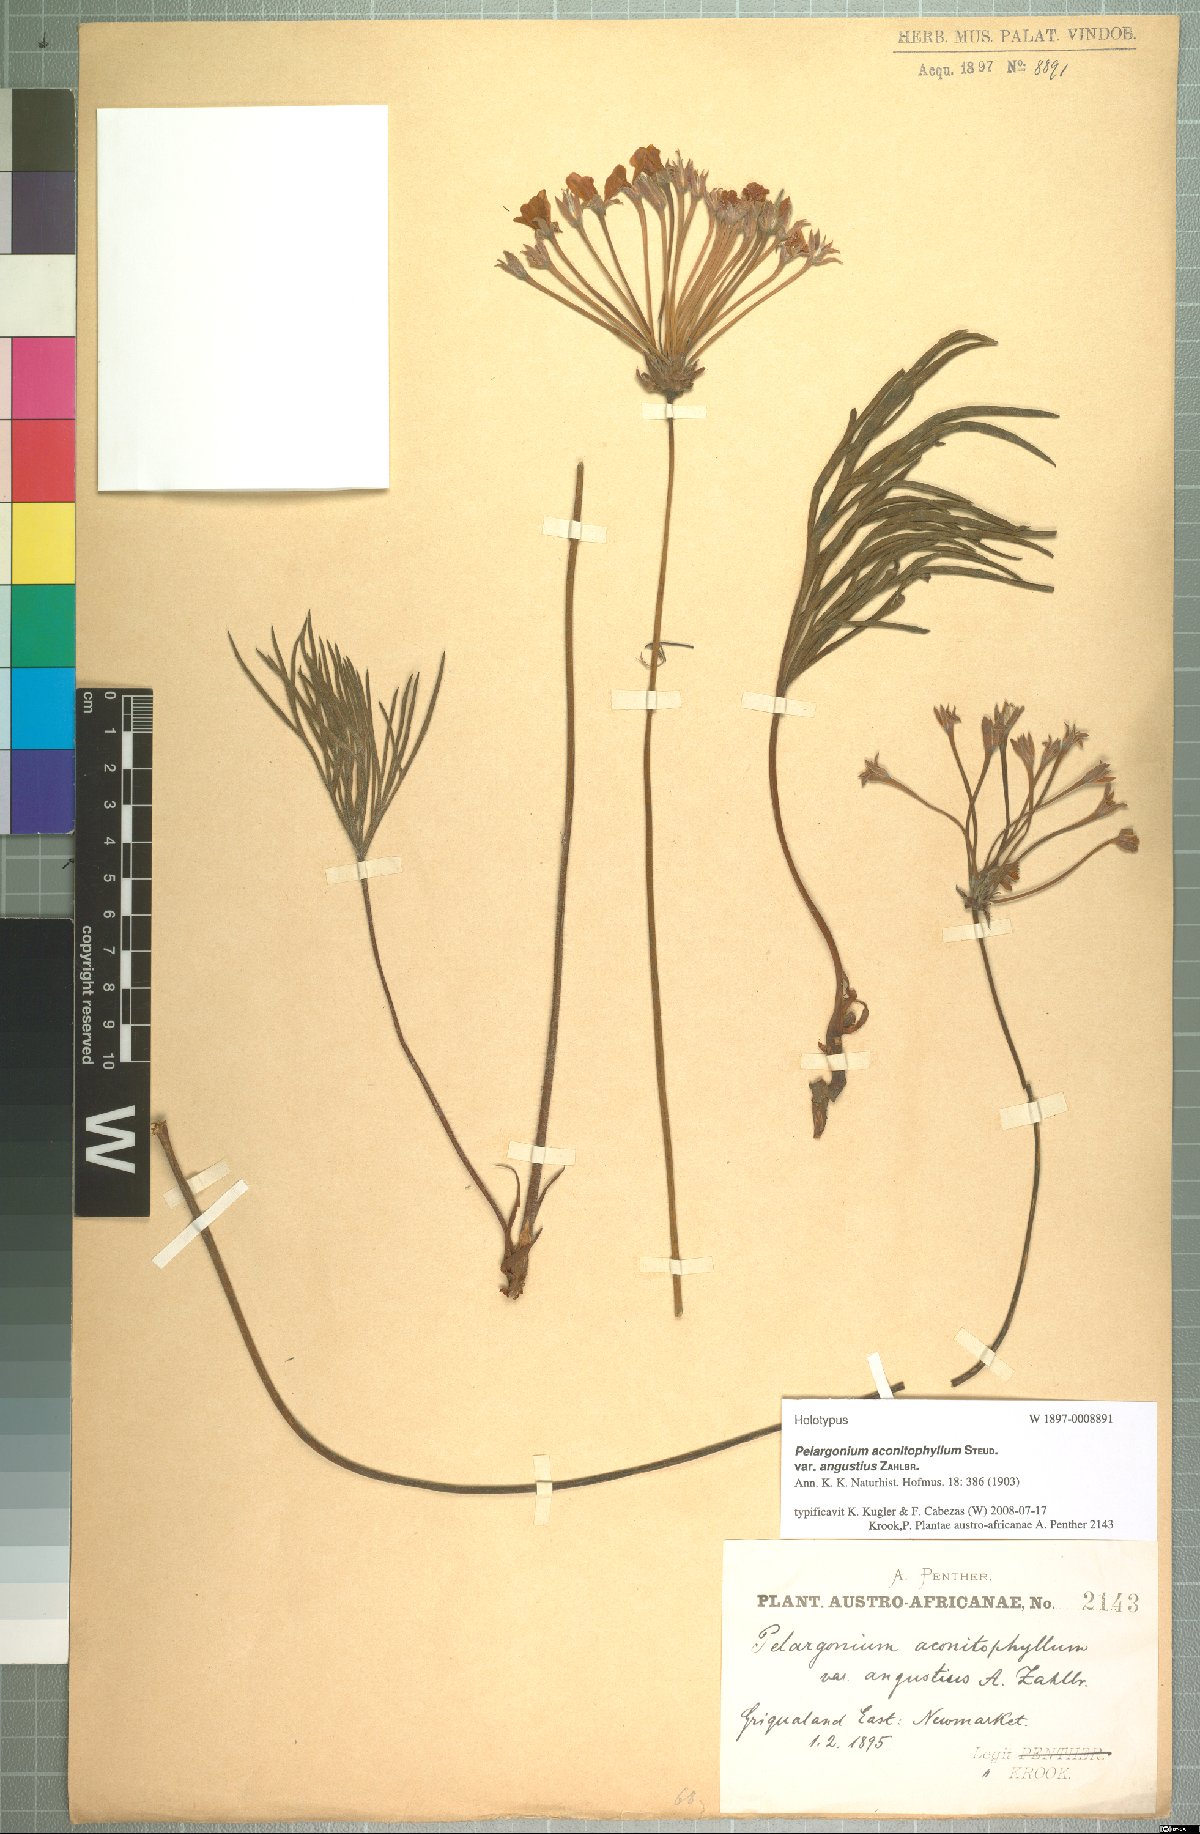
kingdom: Plantae
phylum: Tracheophyta
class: Magnoliopsida
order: Geraniales
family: Geraniaceae
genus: Pelargonium
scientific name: Pelargonium luridum
